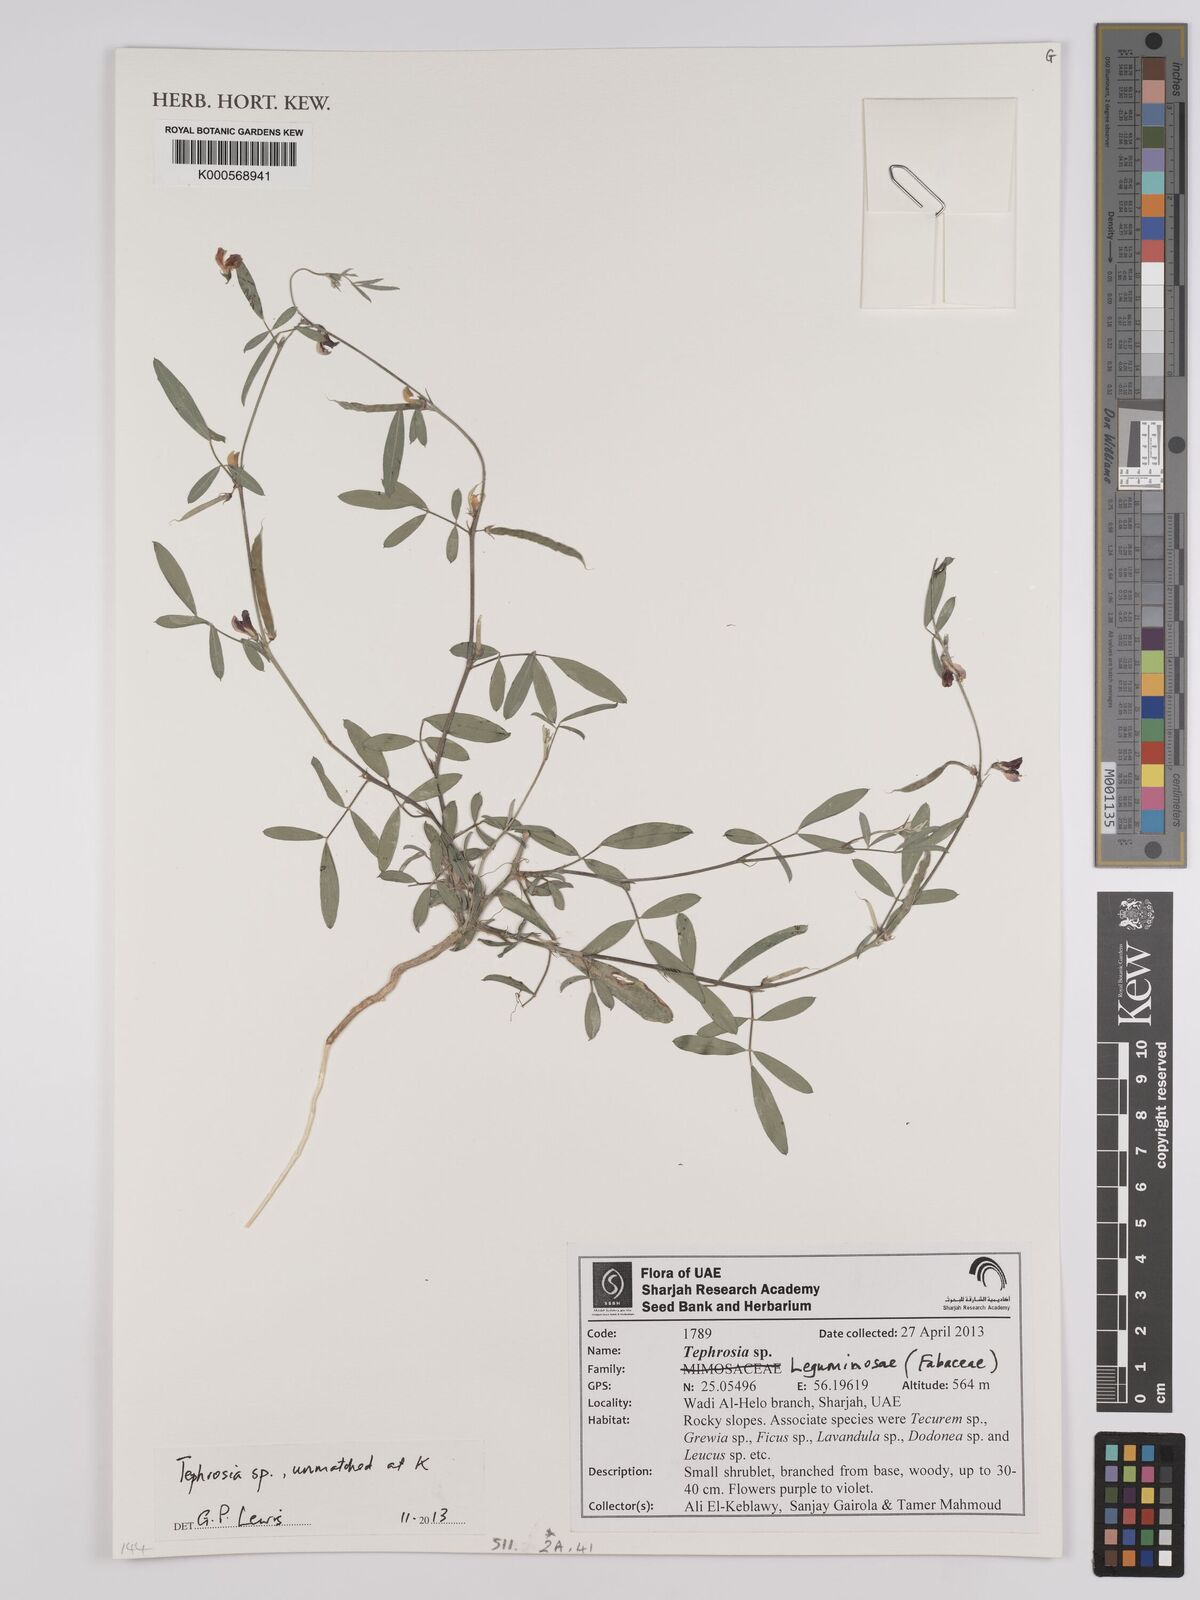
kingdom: Plantae
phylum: Tracheophyta
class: Magnoliopsida
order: Fabales
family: Fabaceae
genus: Tephrosia
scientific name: Tephrosia
